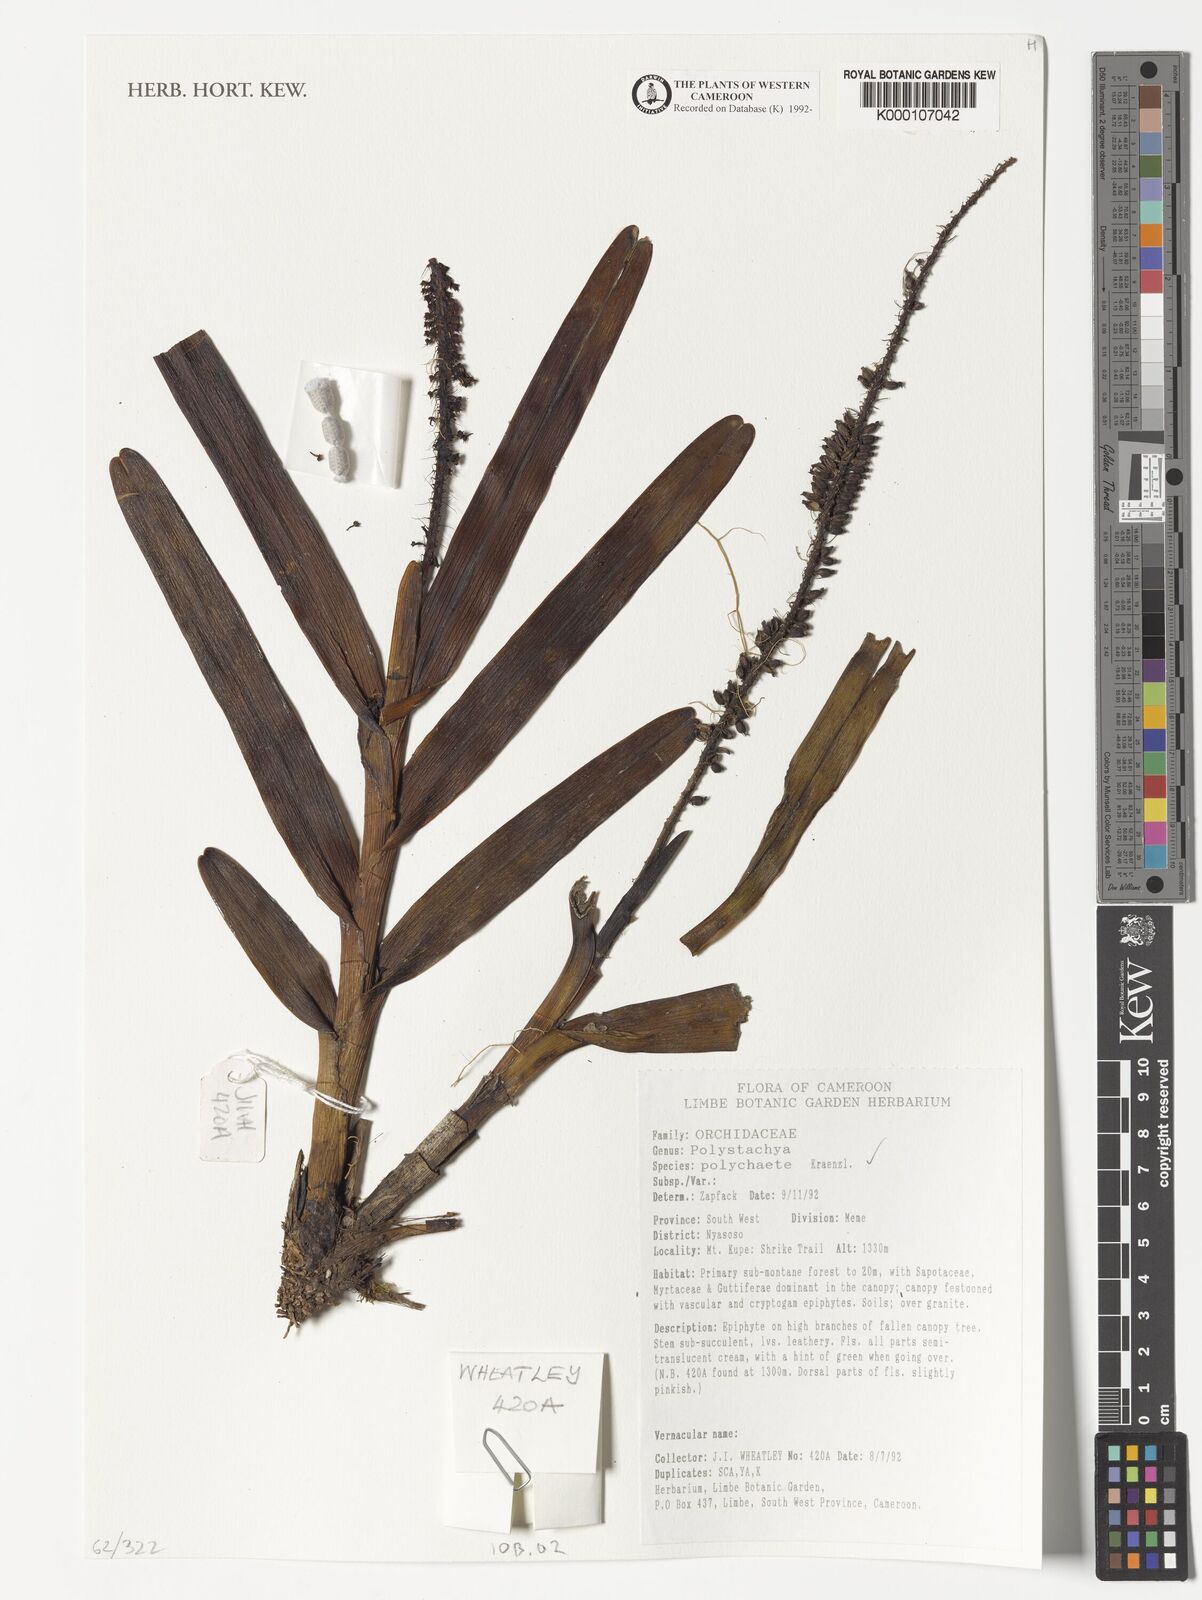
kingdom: Plantae
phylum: Tracheophyta
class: Liliopsida
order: Asparagales
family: Orchidaceae
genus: Polystachya
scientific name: Polystachya polychaete
